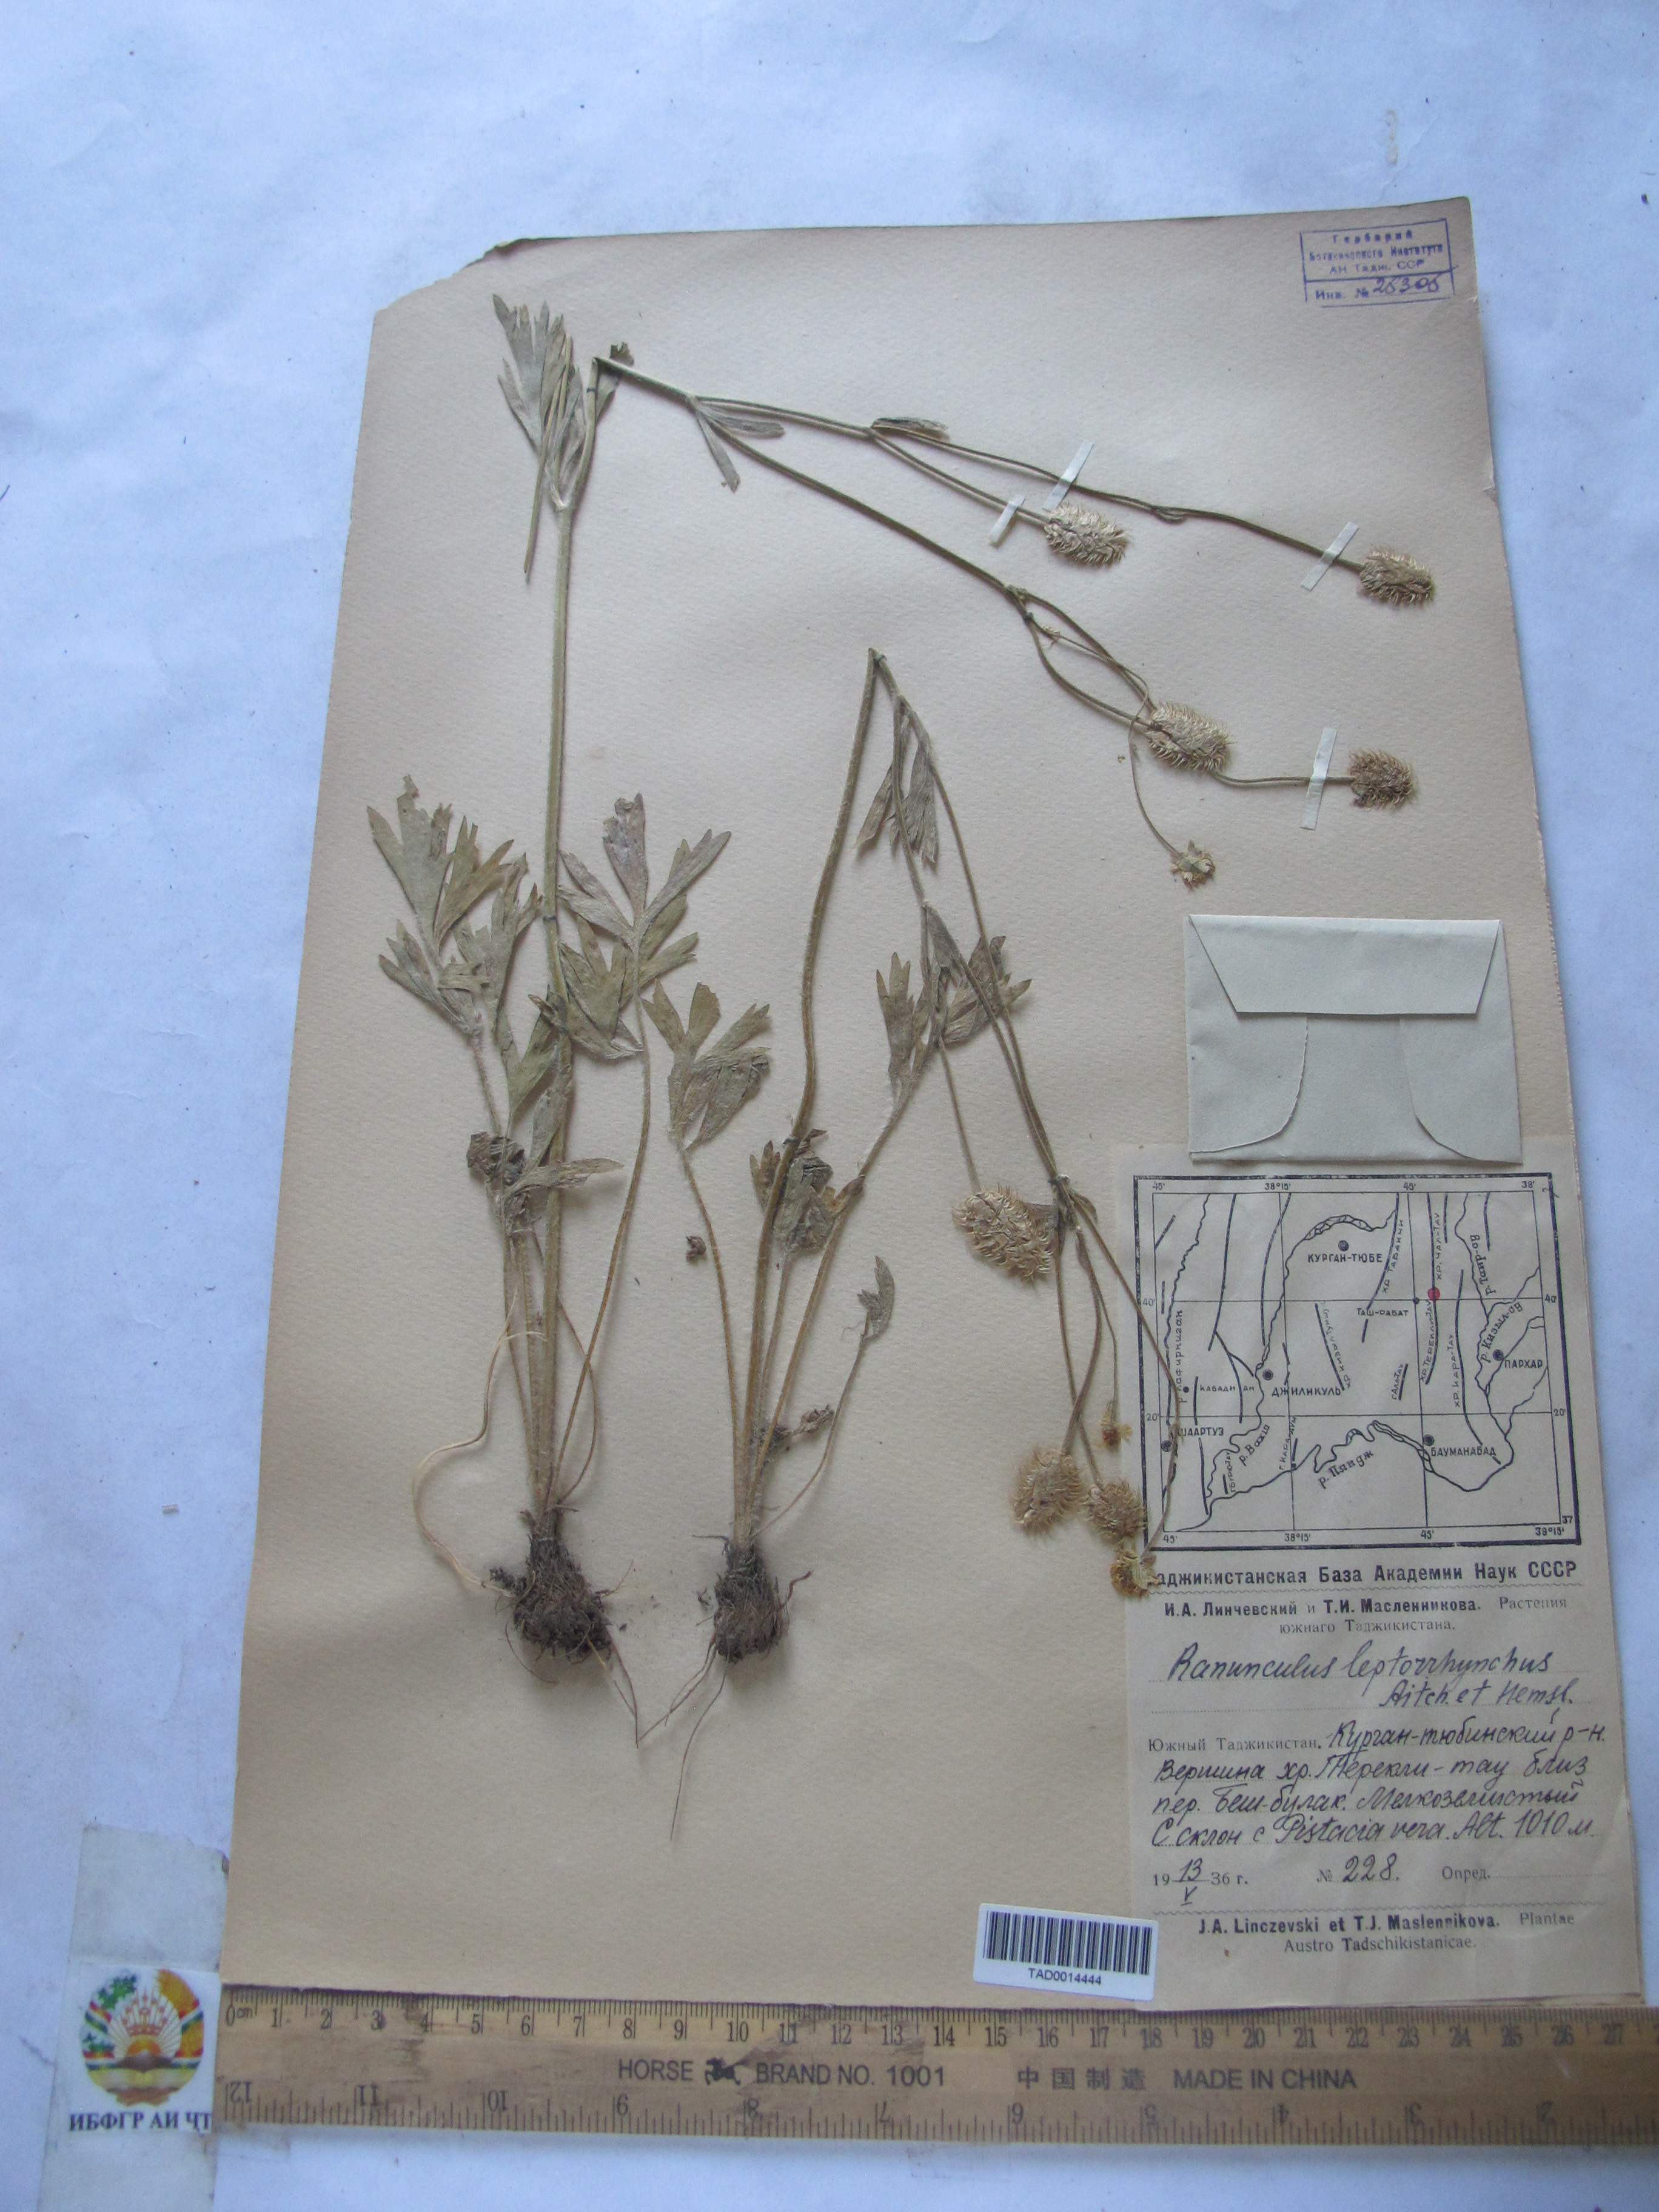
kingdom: Plantae
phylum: Tracheophyta
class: Magnoliopsida
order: Ranunculales
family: Ranunculaceae
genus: Ranunculus
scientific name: Ranunculus leptorrhynchus
